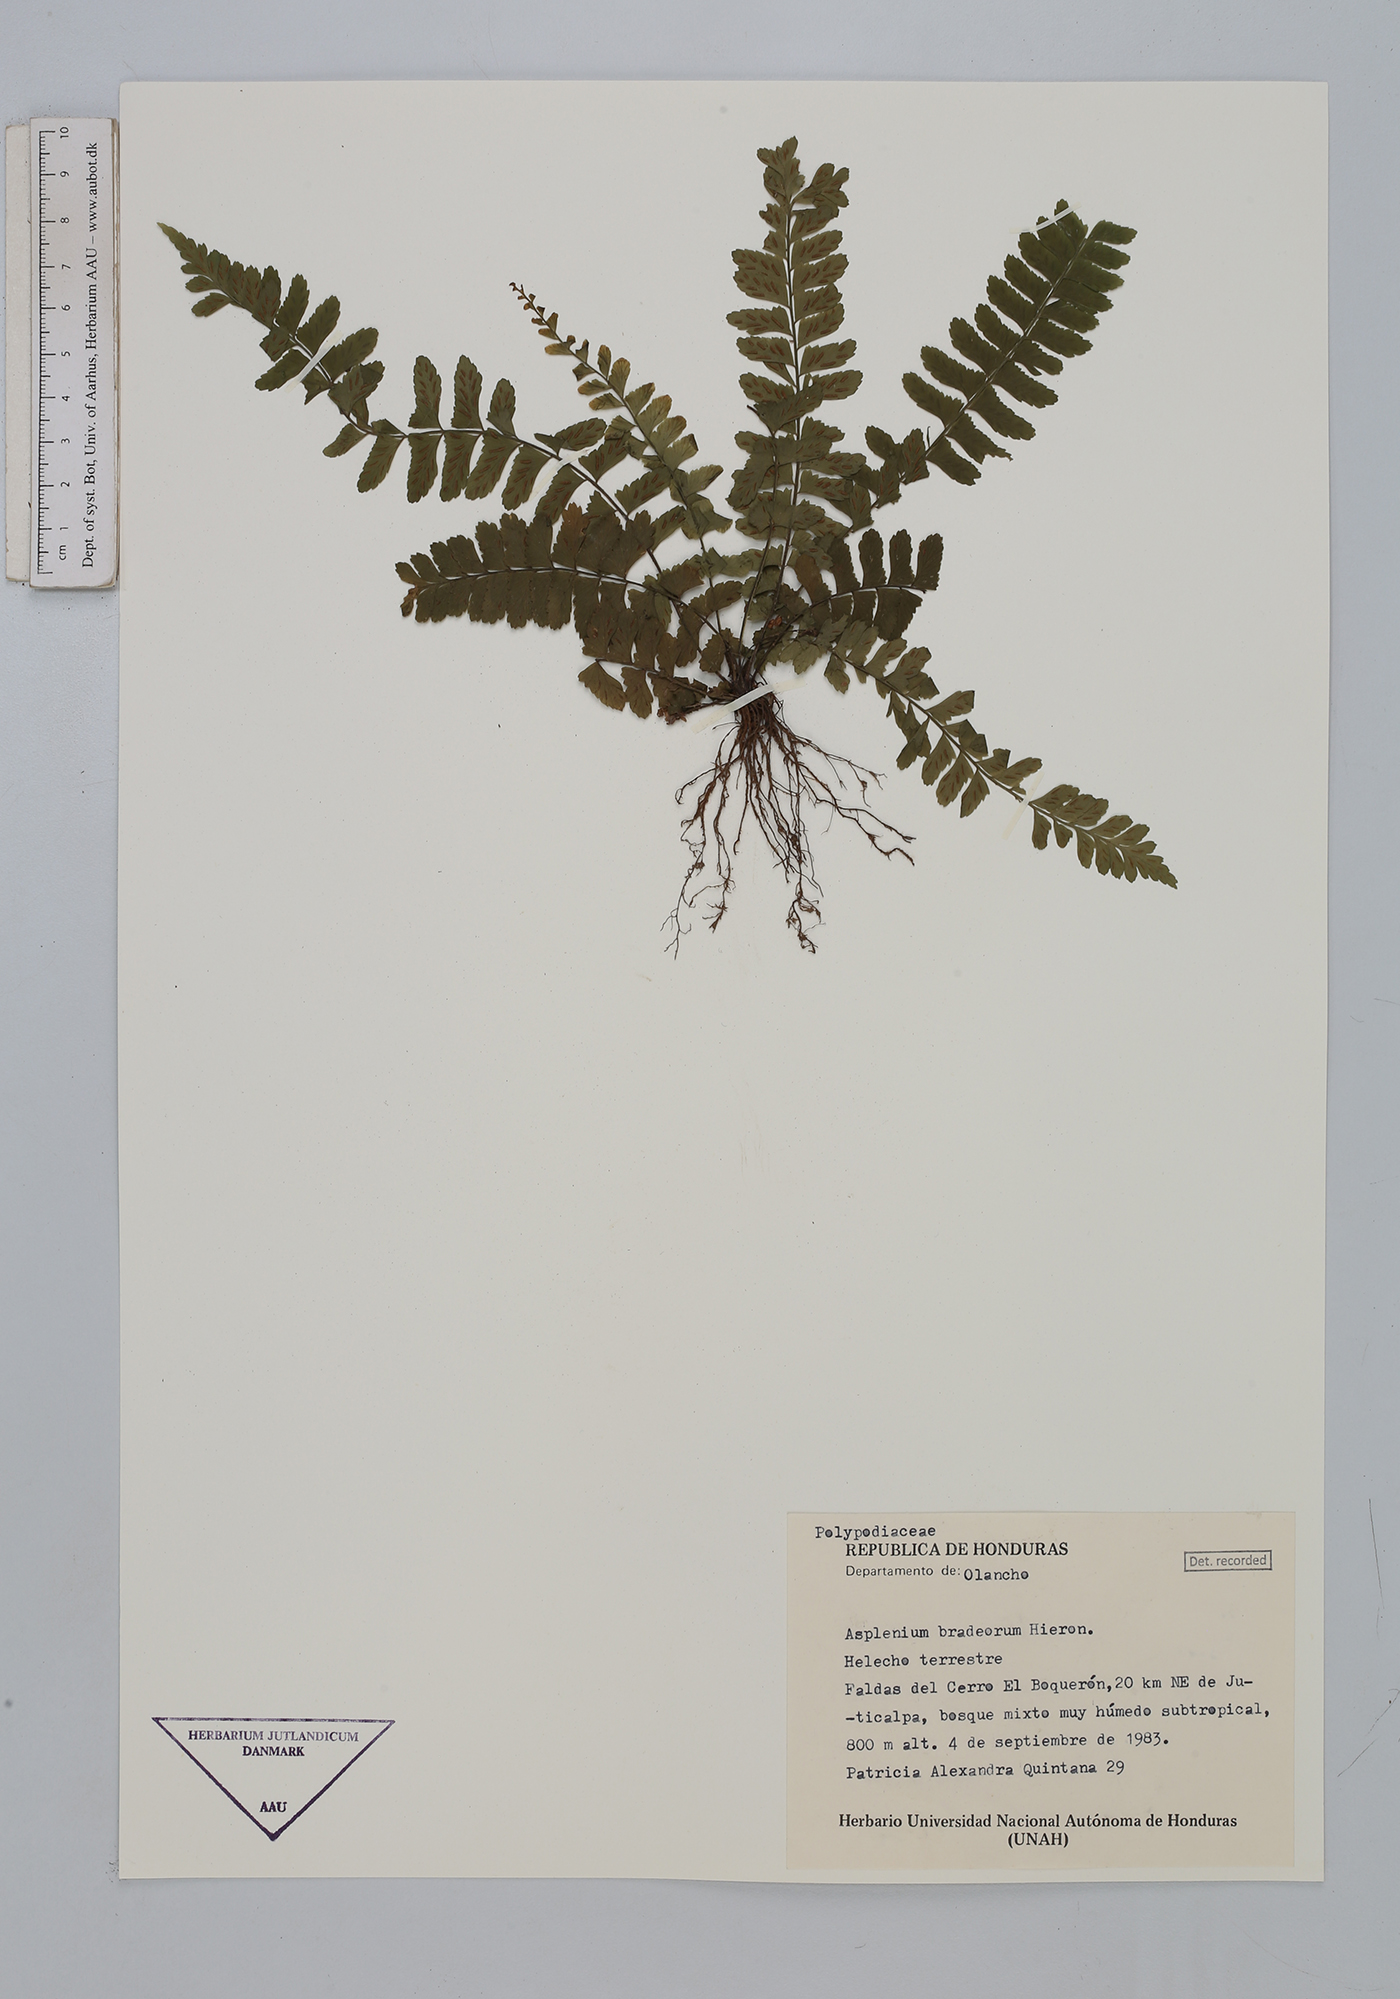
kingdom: Plantae
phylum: Tracheophyta
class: Polypodiopsida
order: Polypodiales
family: Aspleniaceae
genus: Asplenium
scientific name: Asplenium miradorense
